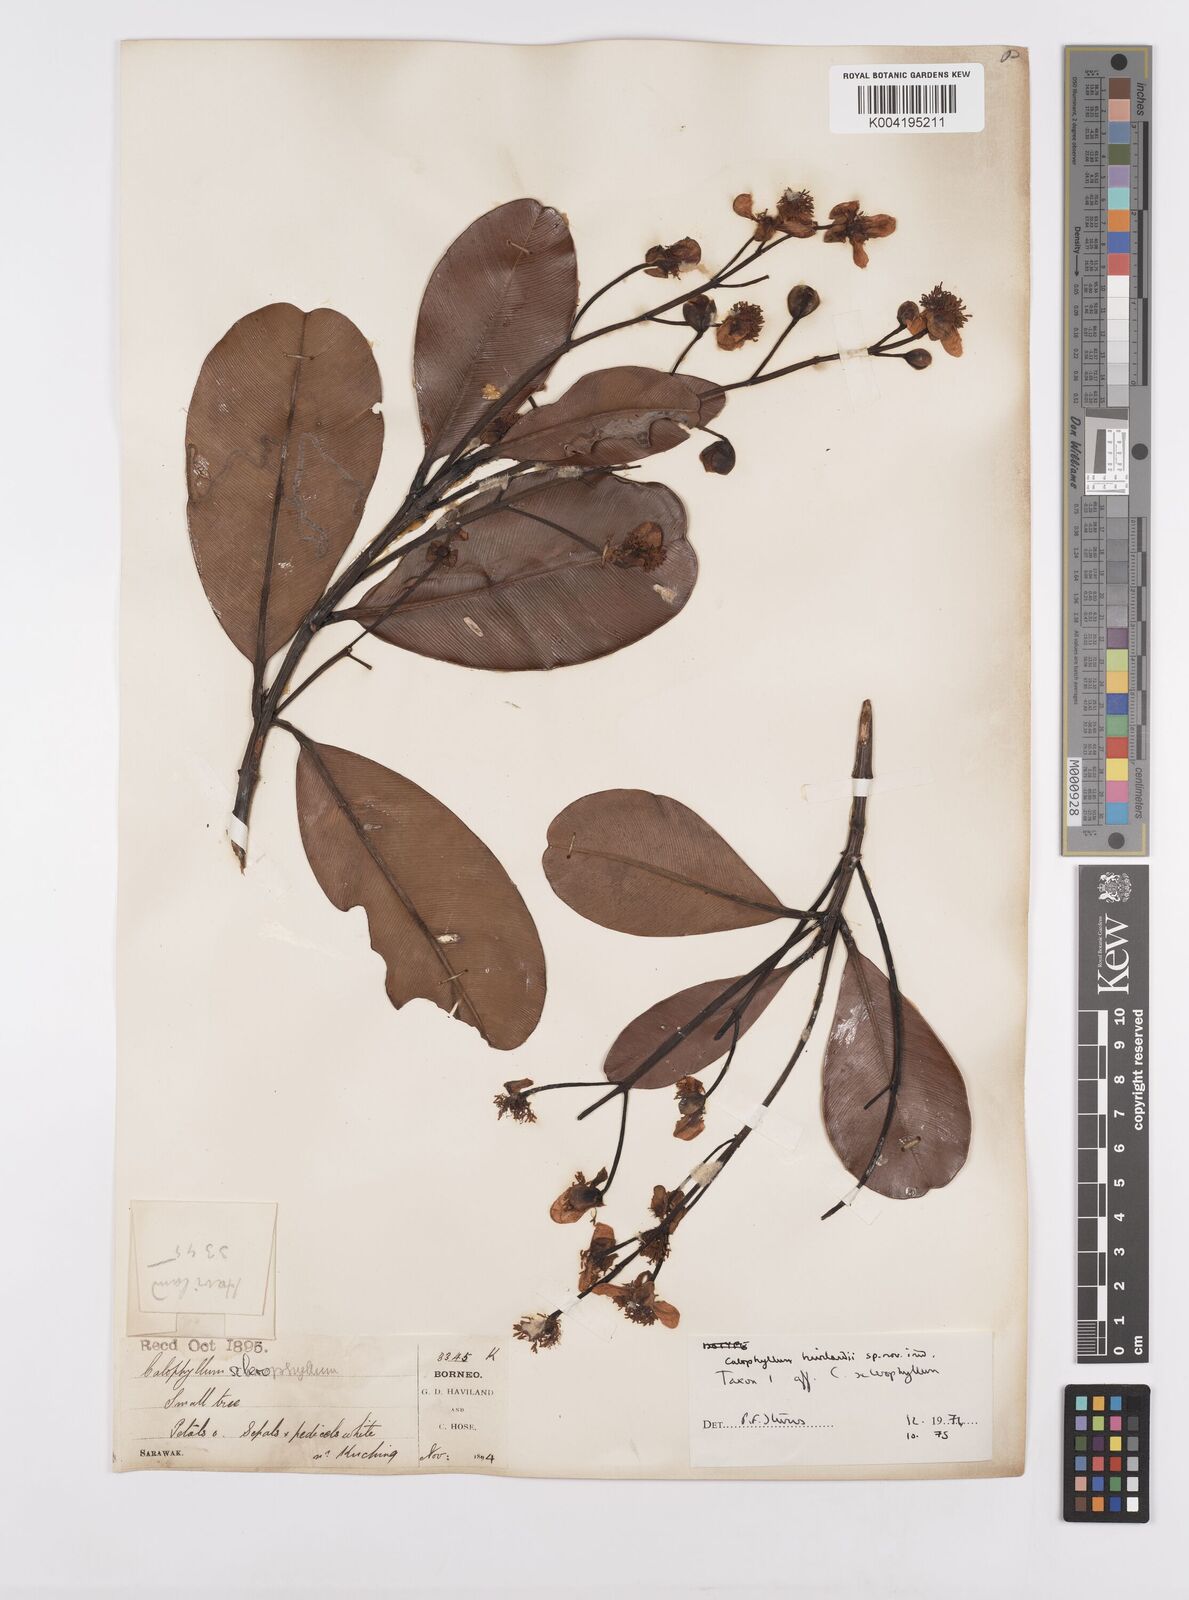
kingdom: Plantae
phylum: Tracheophyta
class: Magnoliopsida
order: Malpighiales
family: Calophyllaceae
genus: Calophyllum
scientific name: Calophyllum havilandii
